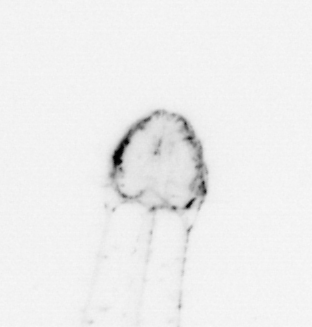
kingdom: Animalia
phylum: Chaetognatha
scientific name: Chaetognatha
